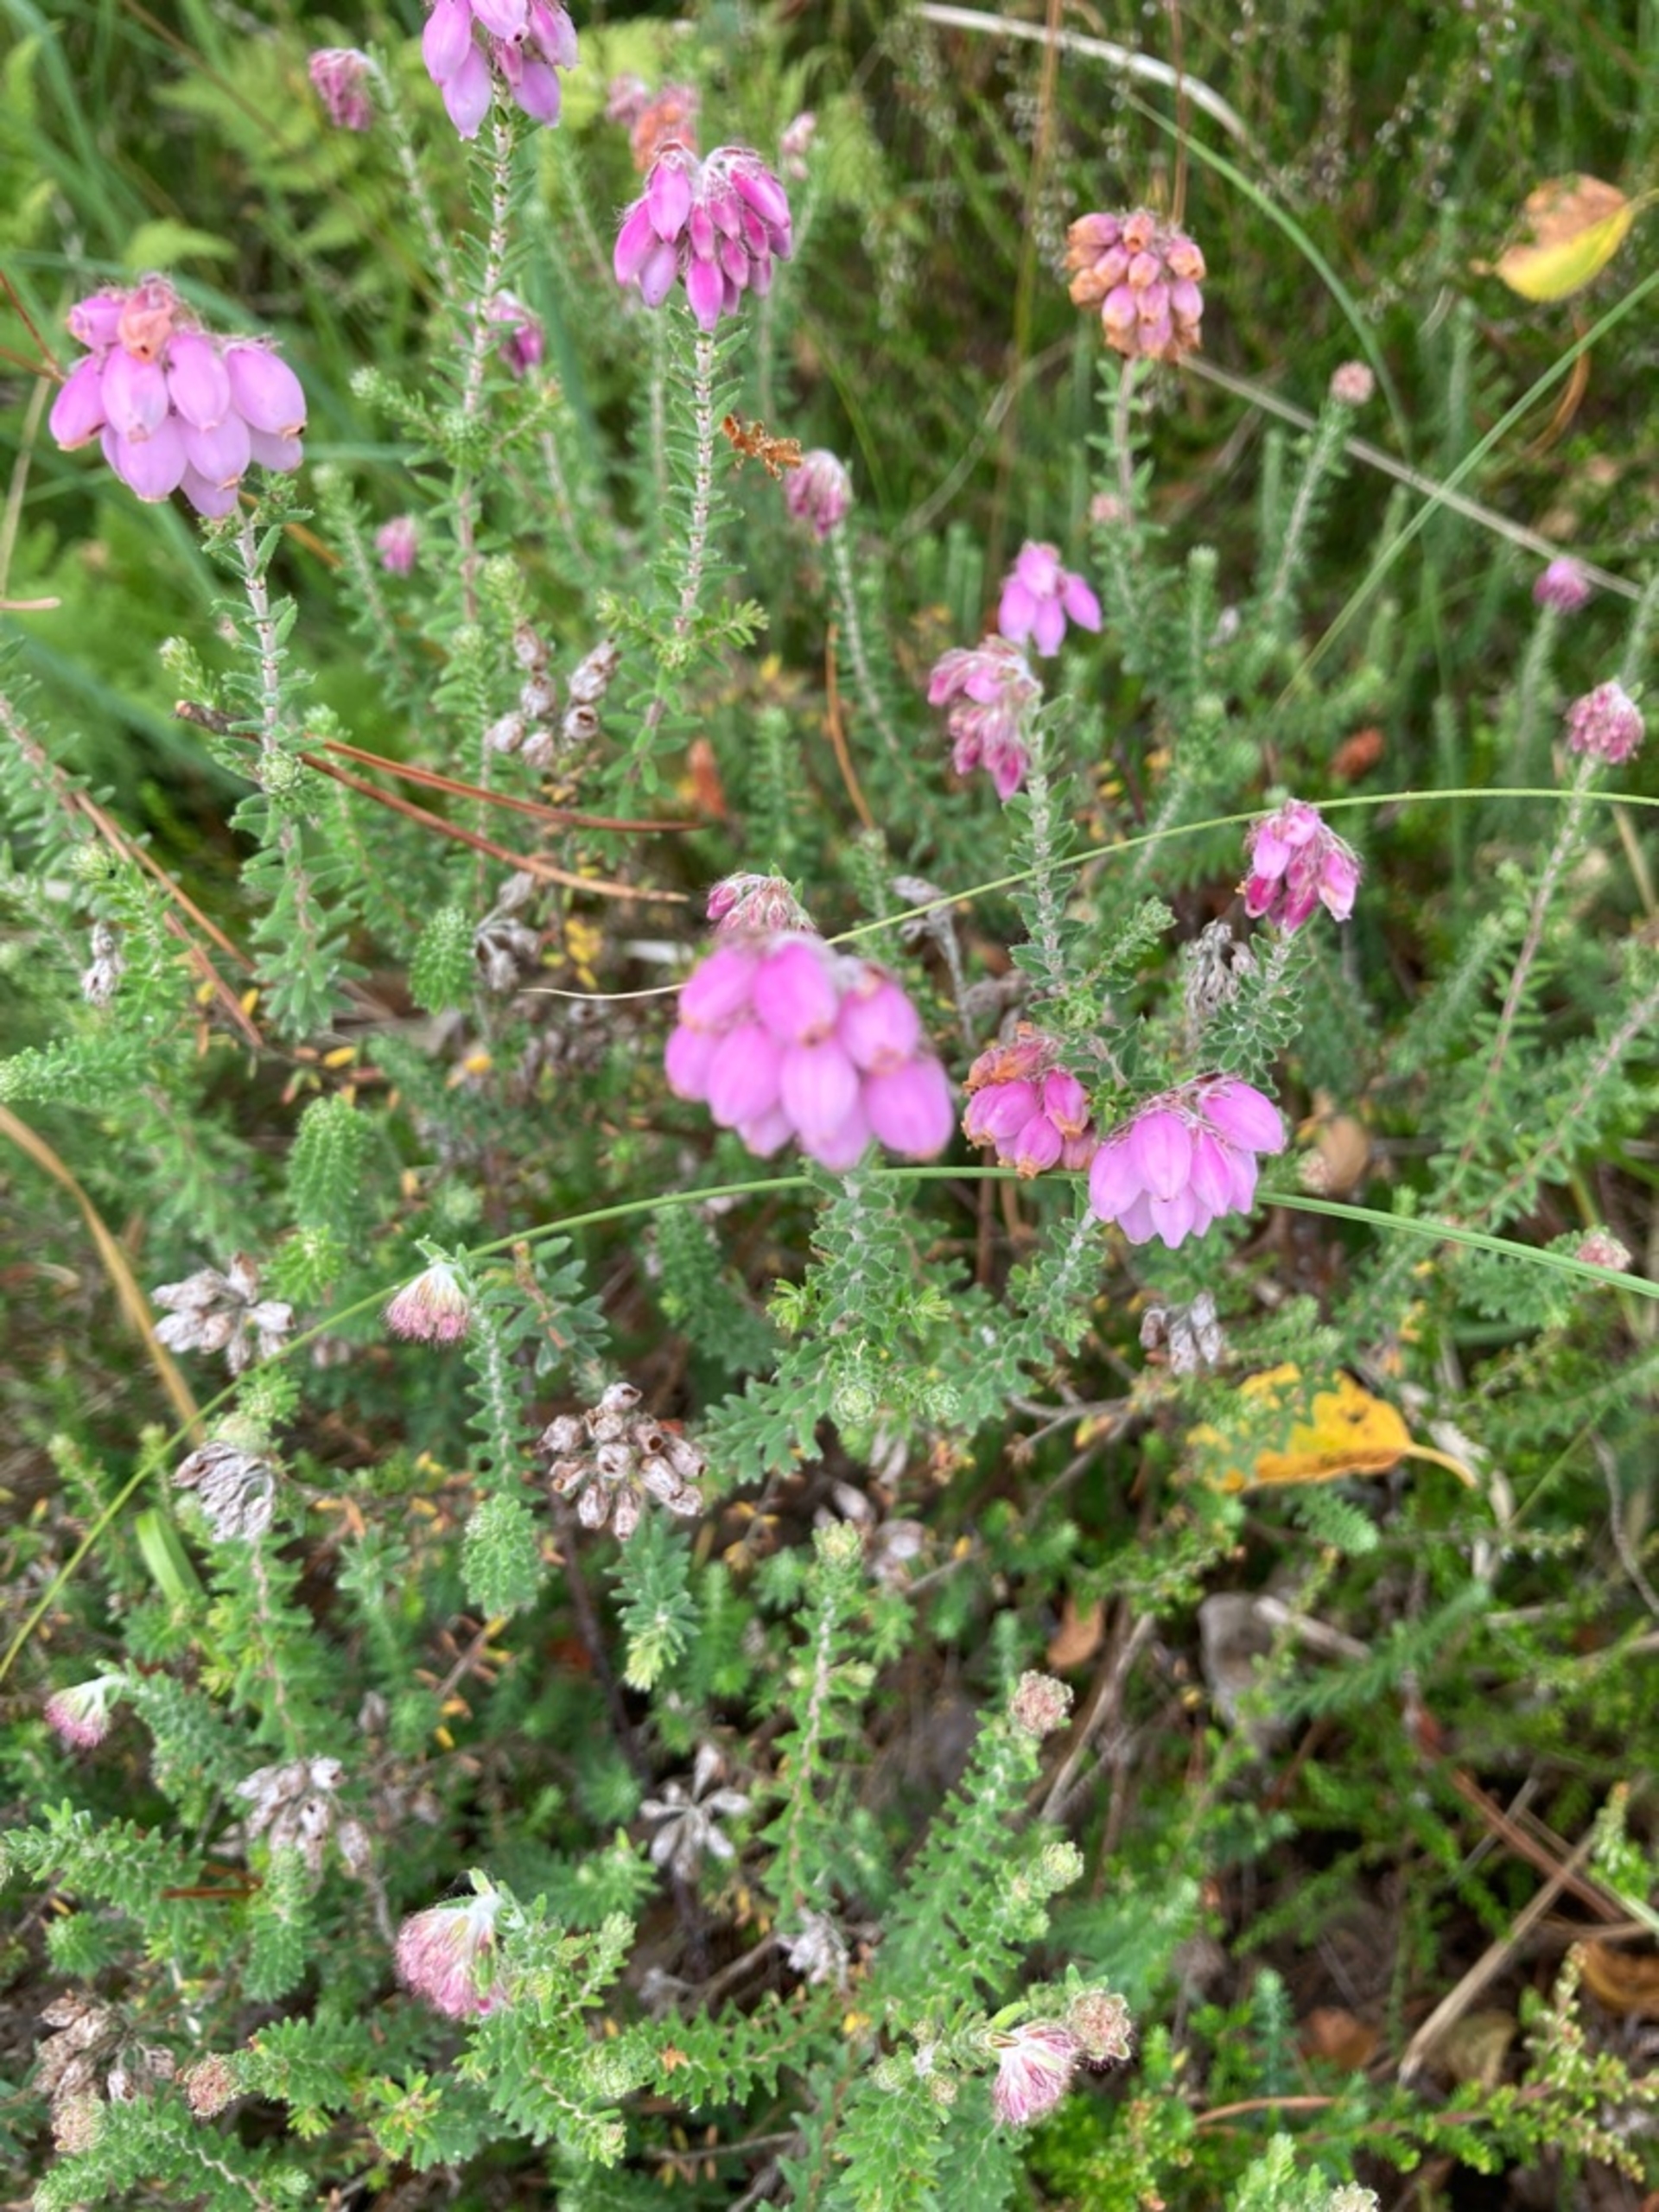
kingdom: Plantae
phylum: Tracheophyta
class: Magnoliopsida
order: Ericales
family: Ericaceae
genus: Erica
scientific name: Erica tetralix
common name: Klokkelyng
